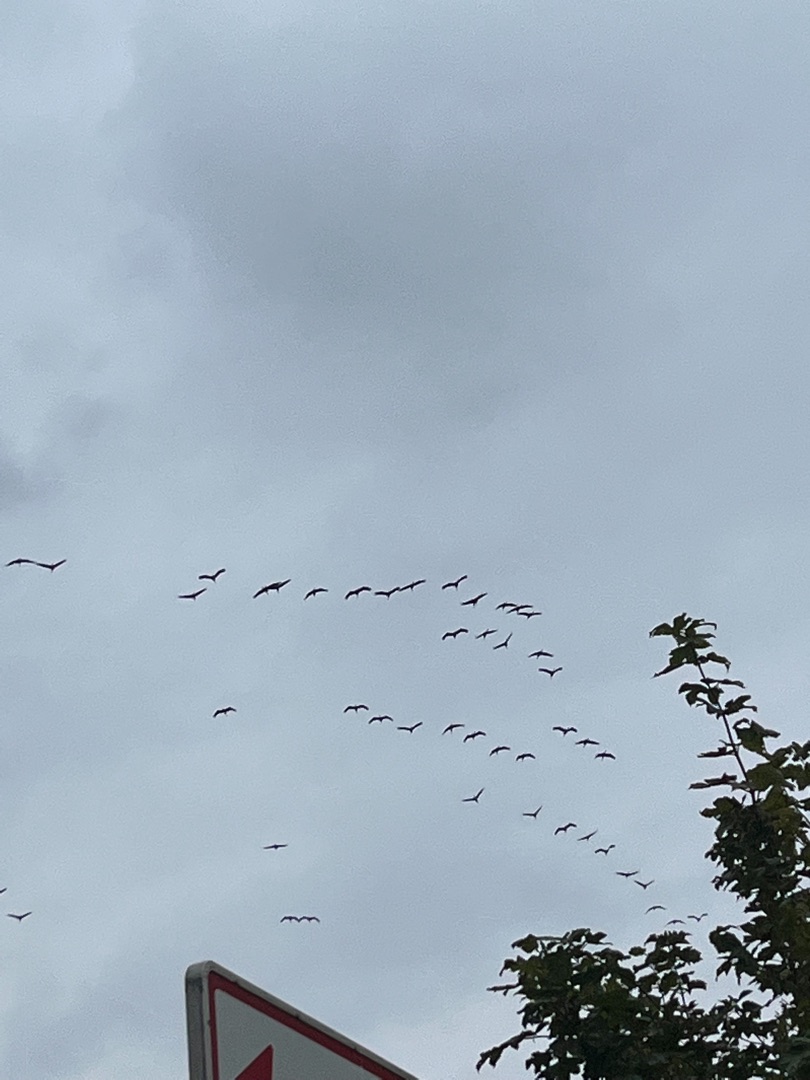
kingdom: Animalia
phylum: Chordata
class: Aves
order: Gruiformes
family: Gruidae
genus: Grus
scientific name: Grus grus
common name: Trane
